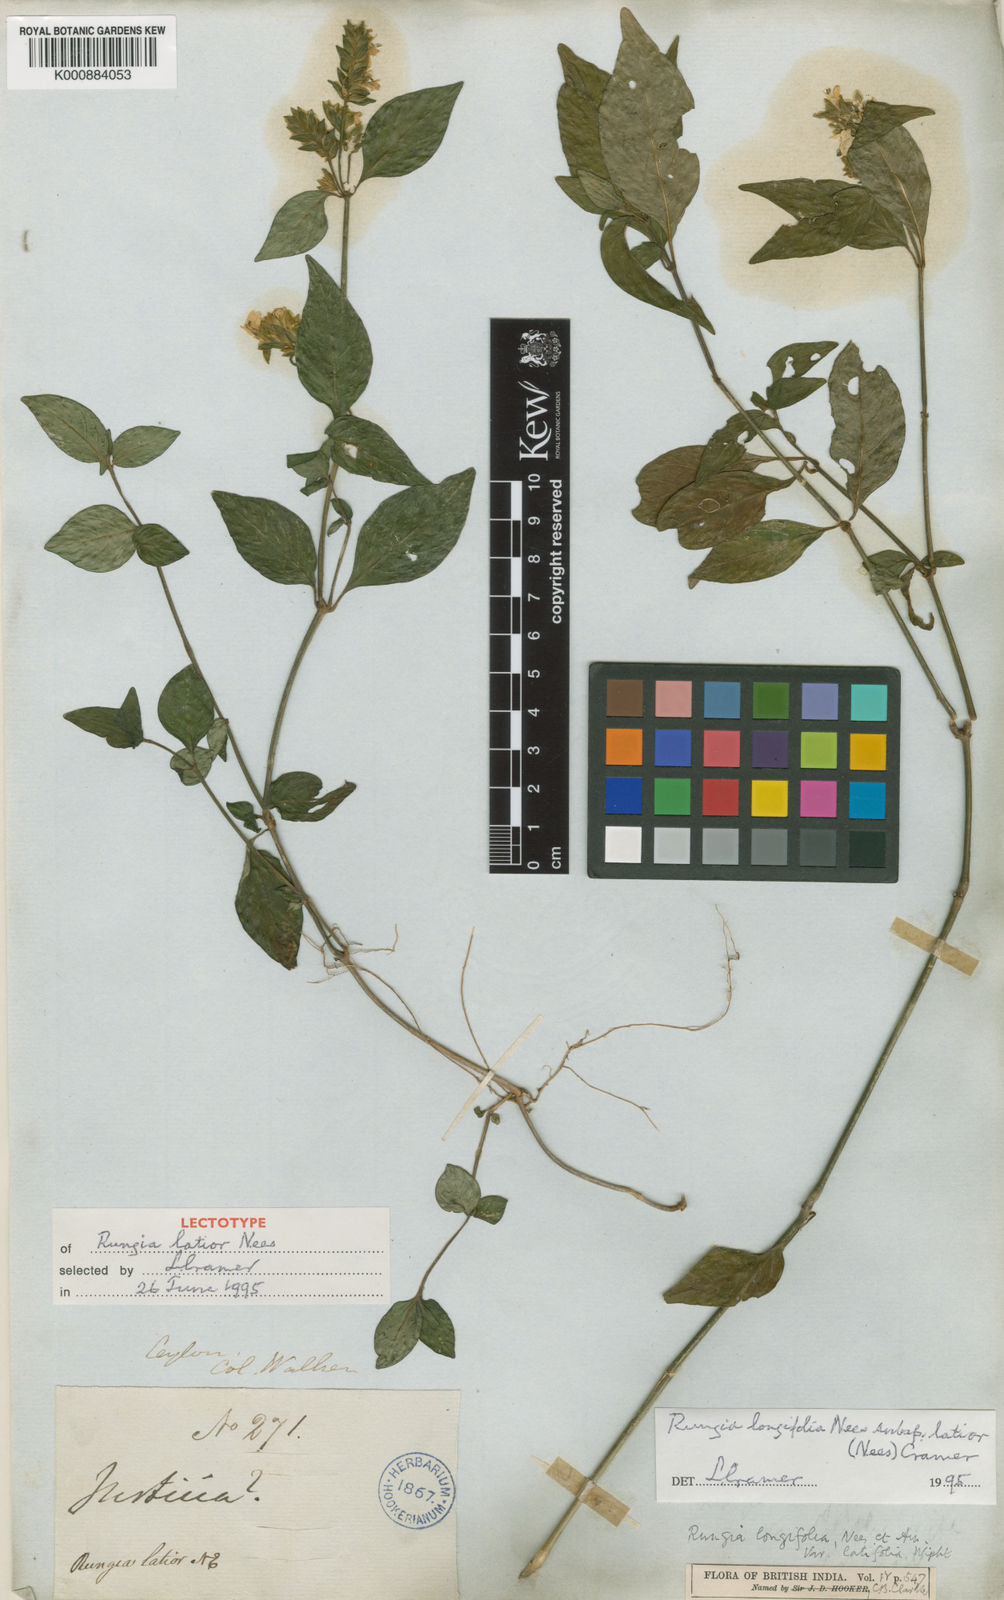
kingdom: Plantae
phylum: Tracheophyta
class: Magnoliopsida
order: Lamiales
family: Acanthaceae
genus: Justicia
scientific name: Justicia
